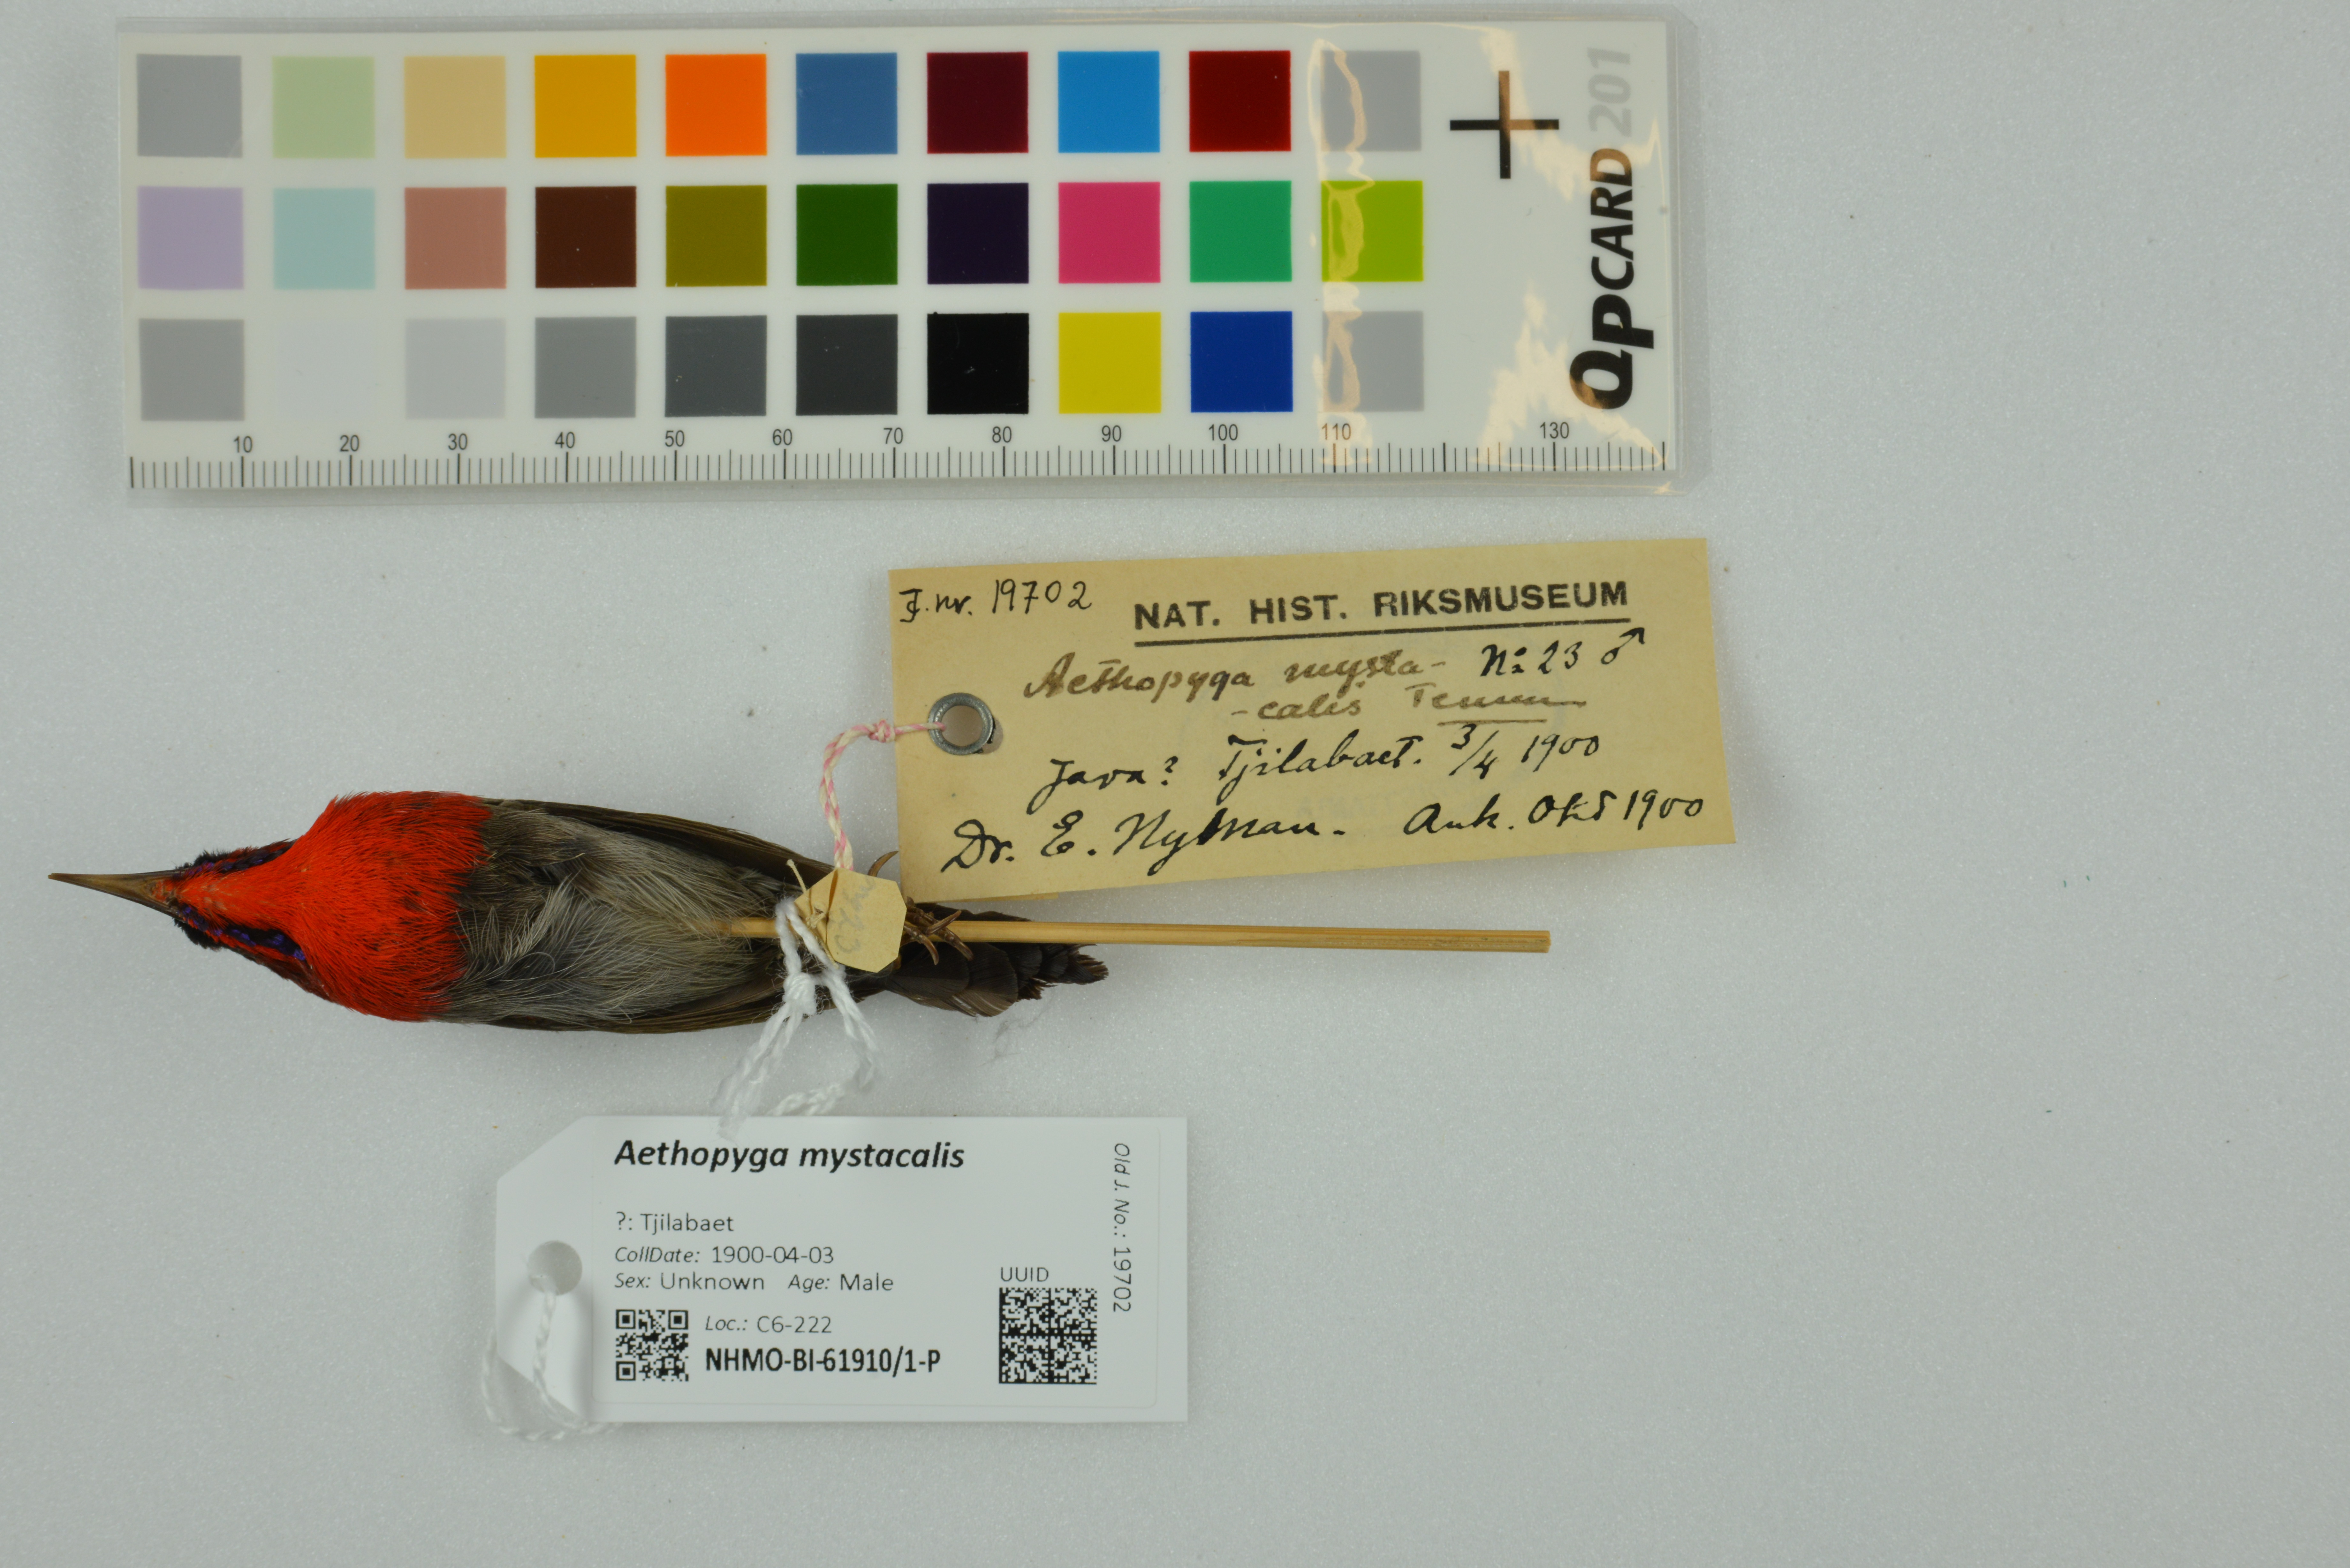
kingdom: Animalia
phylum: Chordata
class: Aves
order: Passeriformes
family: Nectariniidae
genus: Aethopyga
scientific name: Aethopyga mystacalis
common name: Javan sunbird
